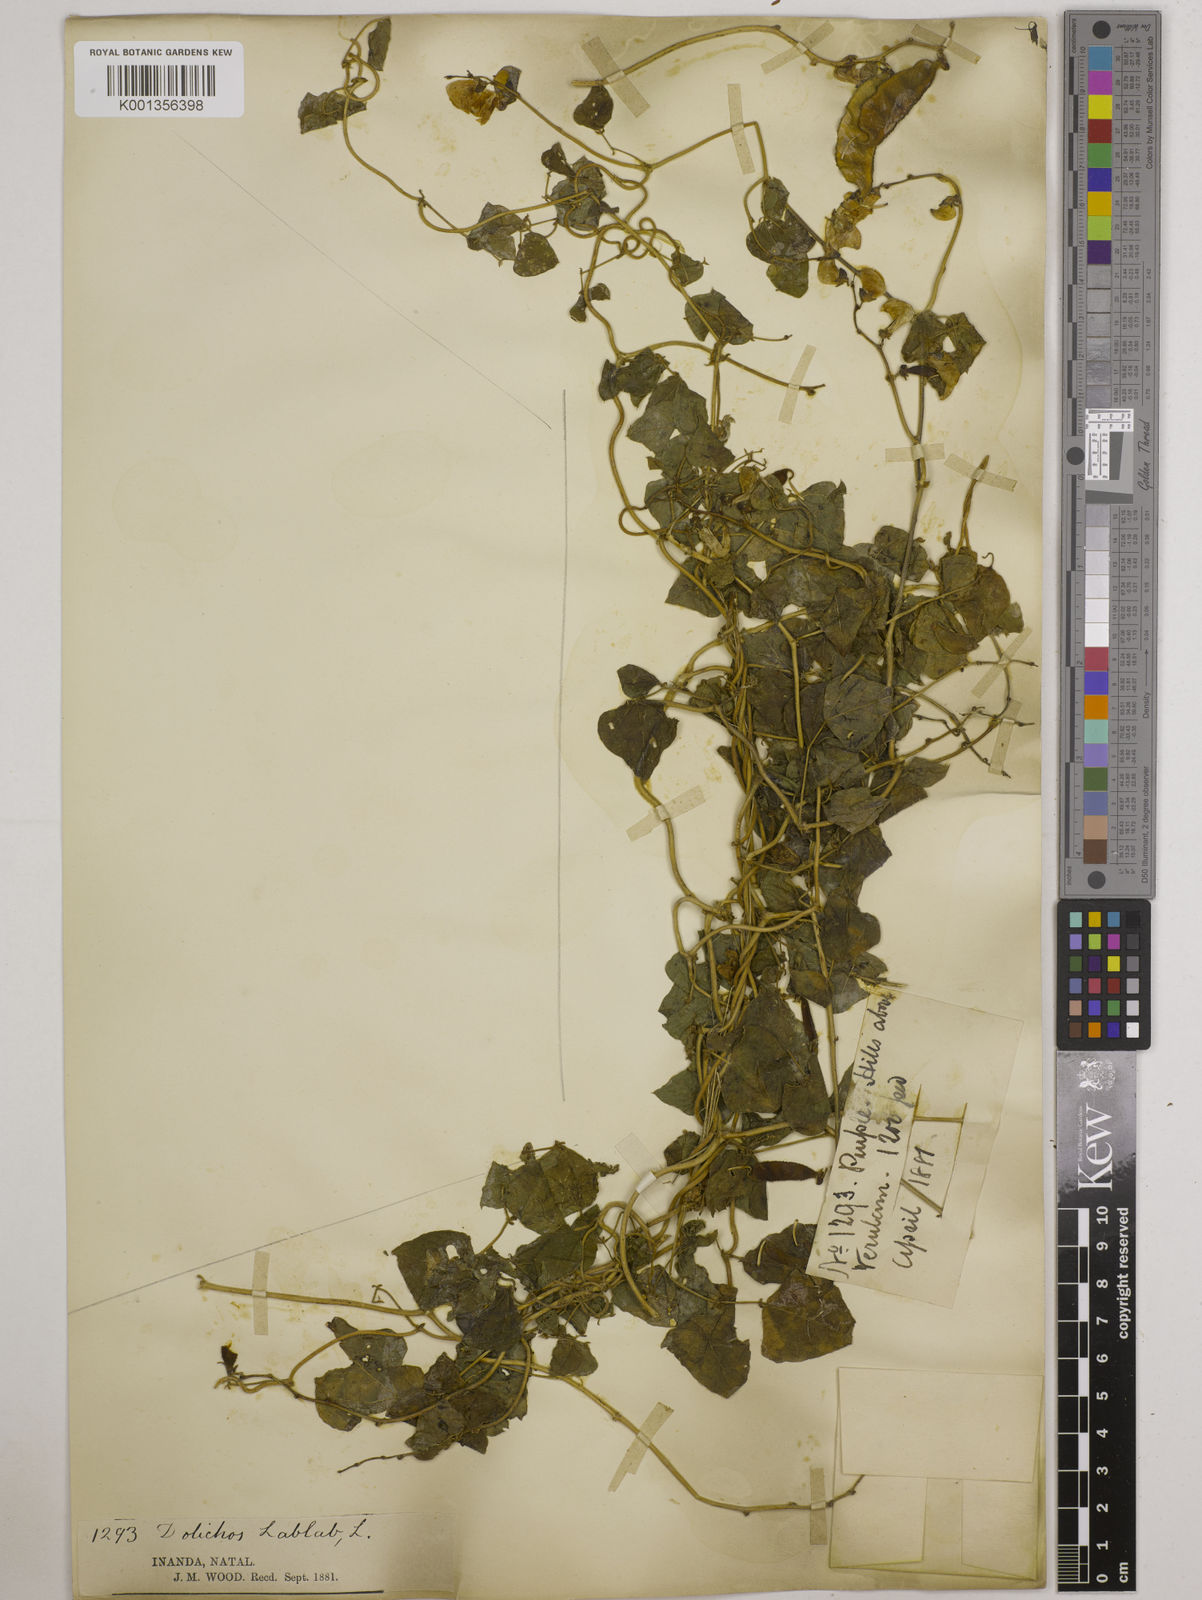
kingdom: Plantae
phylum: Tracheophyta
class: Magnoliopsida
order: Fabales
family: Fabaceae
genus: Lablab
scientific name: Lablab purpureus
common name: Lablab-bean
